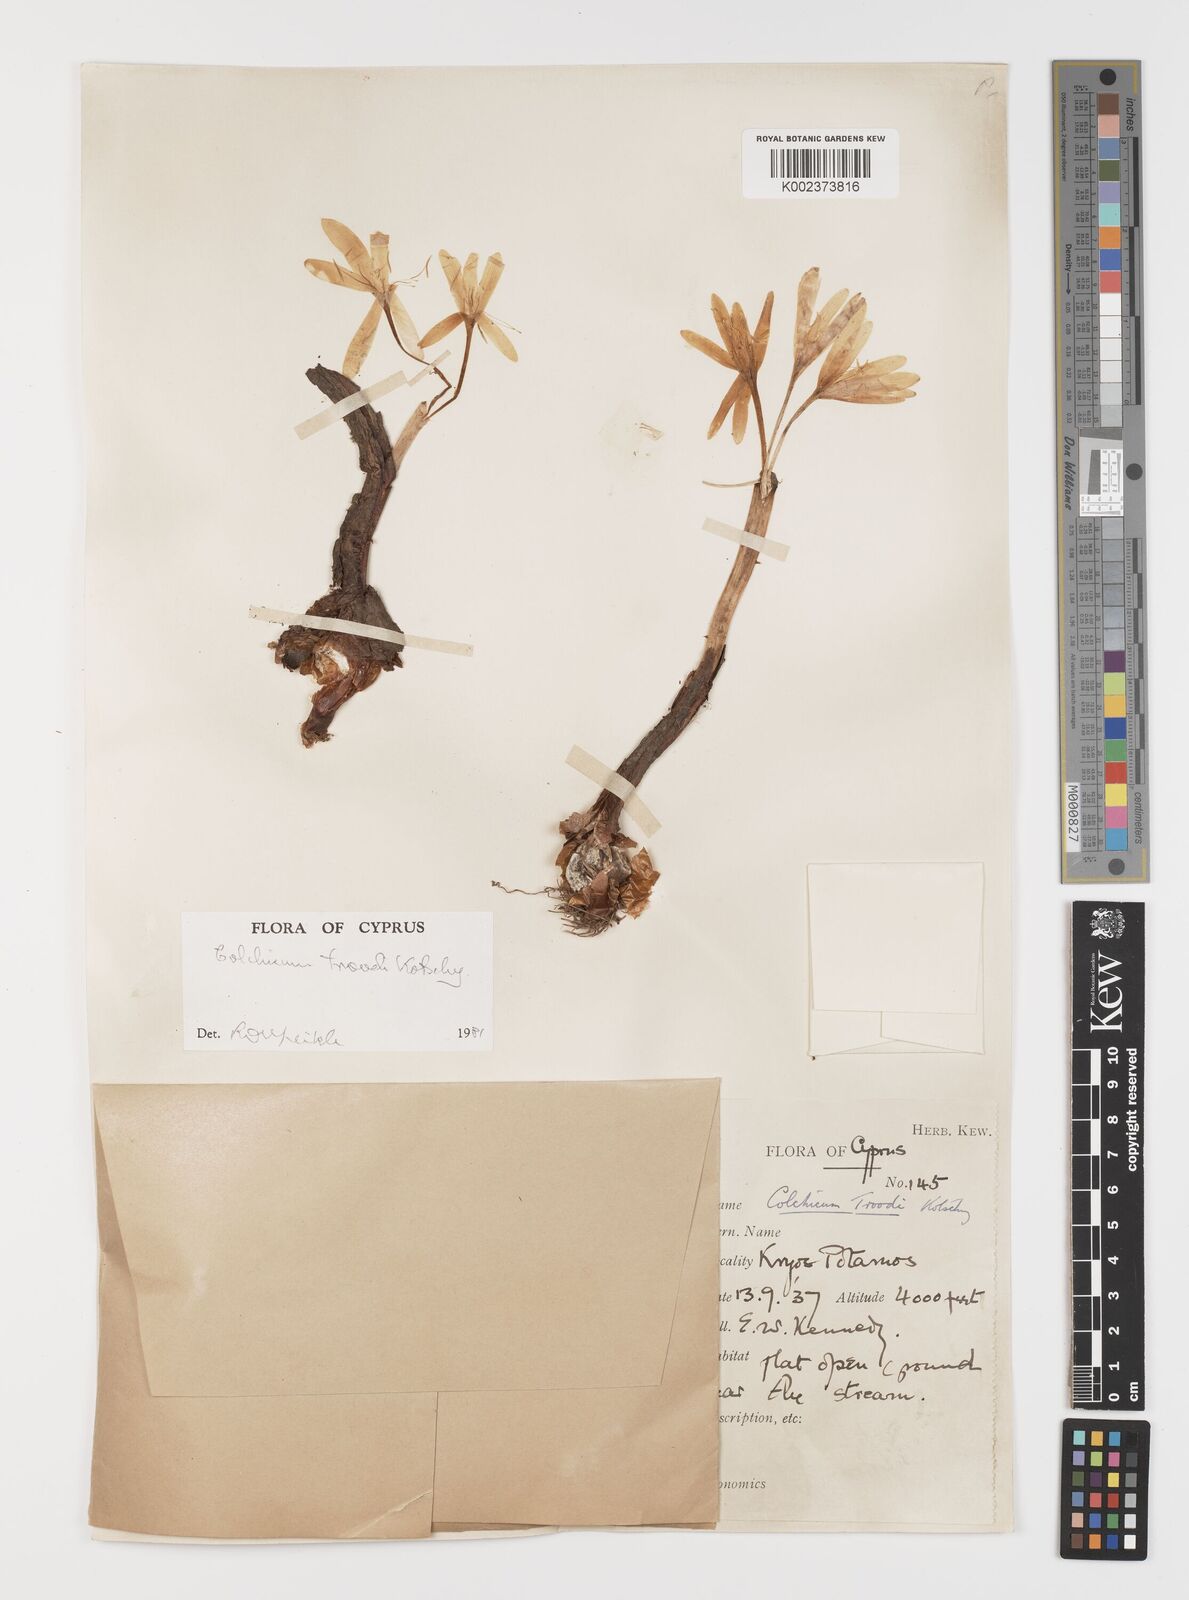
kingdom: Plantae
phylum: Tracheophyta
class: Liliopsida
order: Liliales
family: Colchicaceae
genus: Colchicum
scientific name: Colchicum troodi
